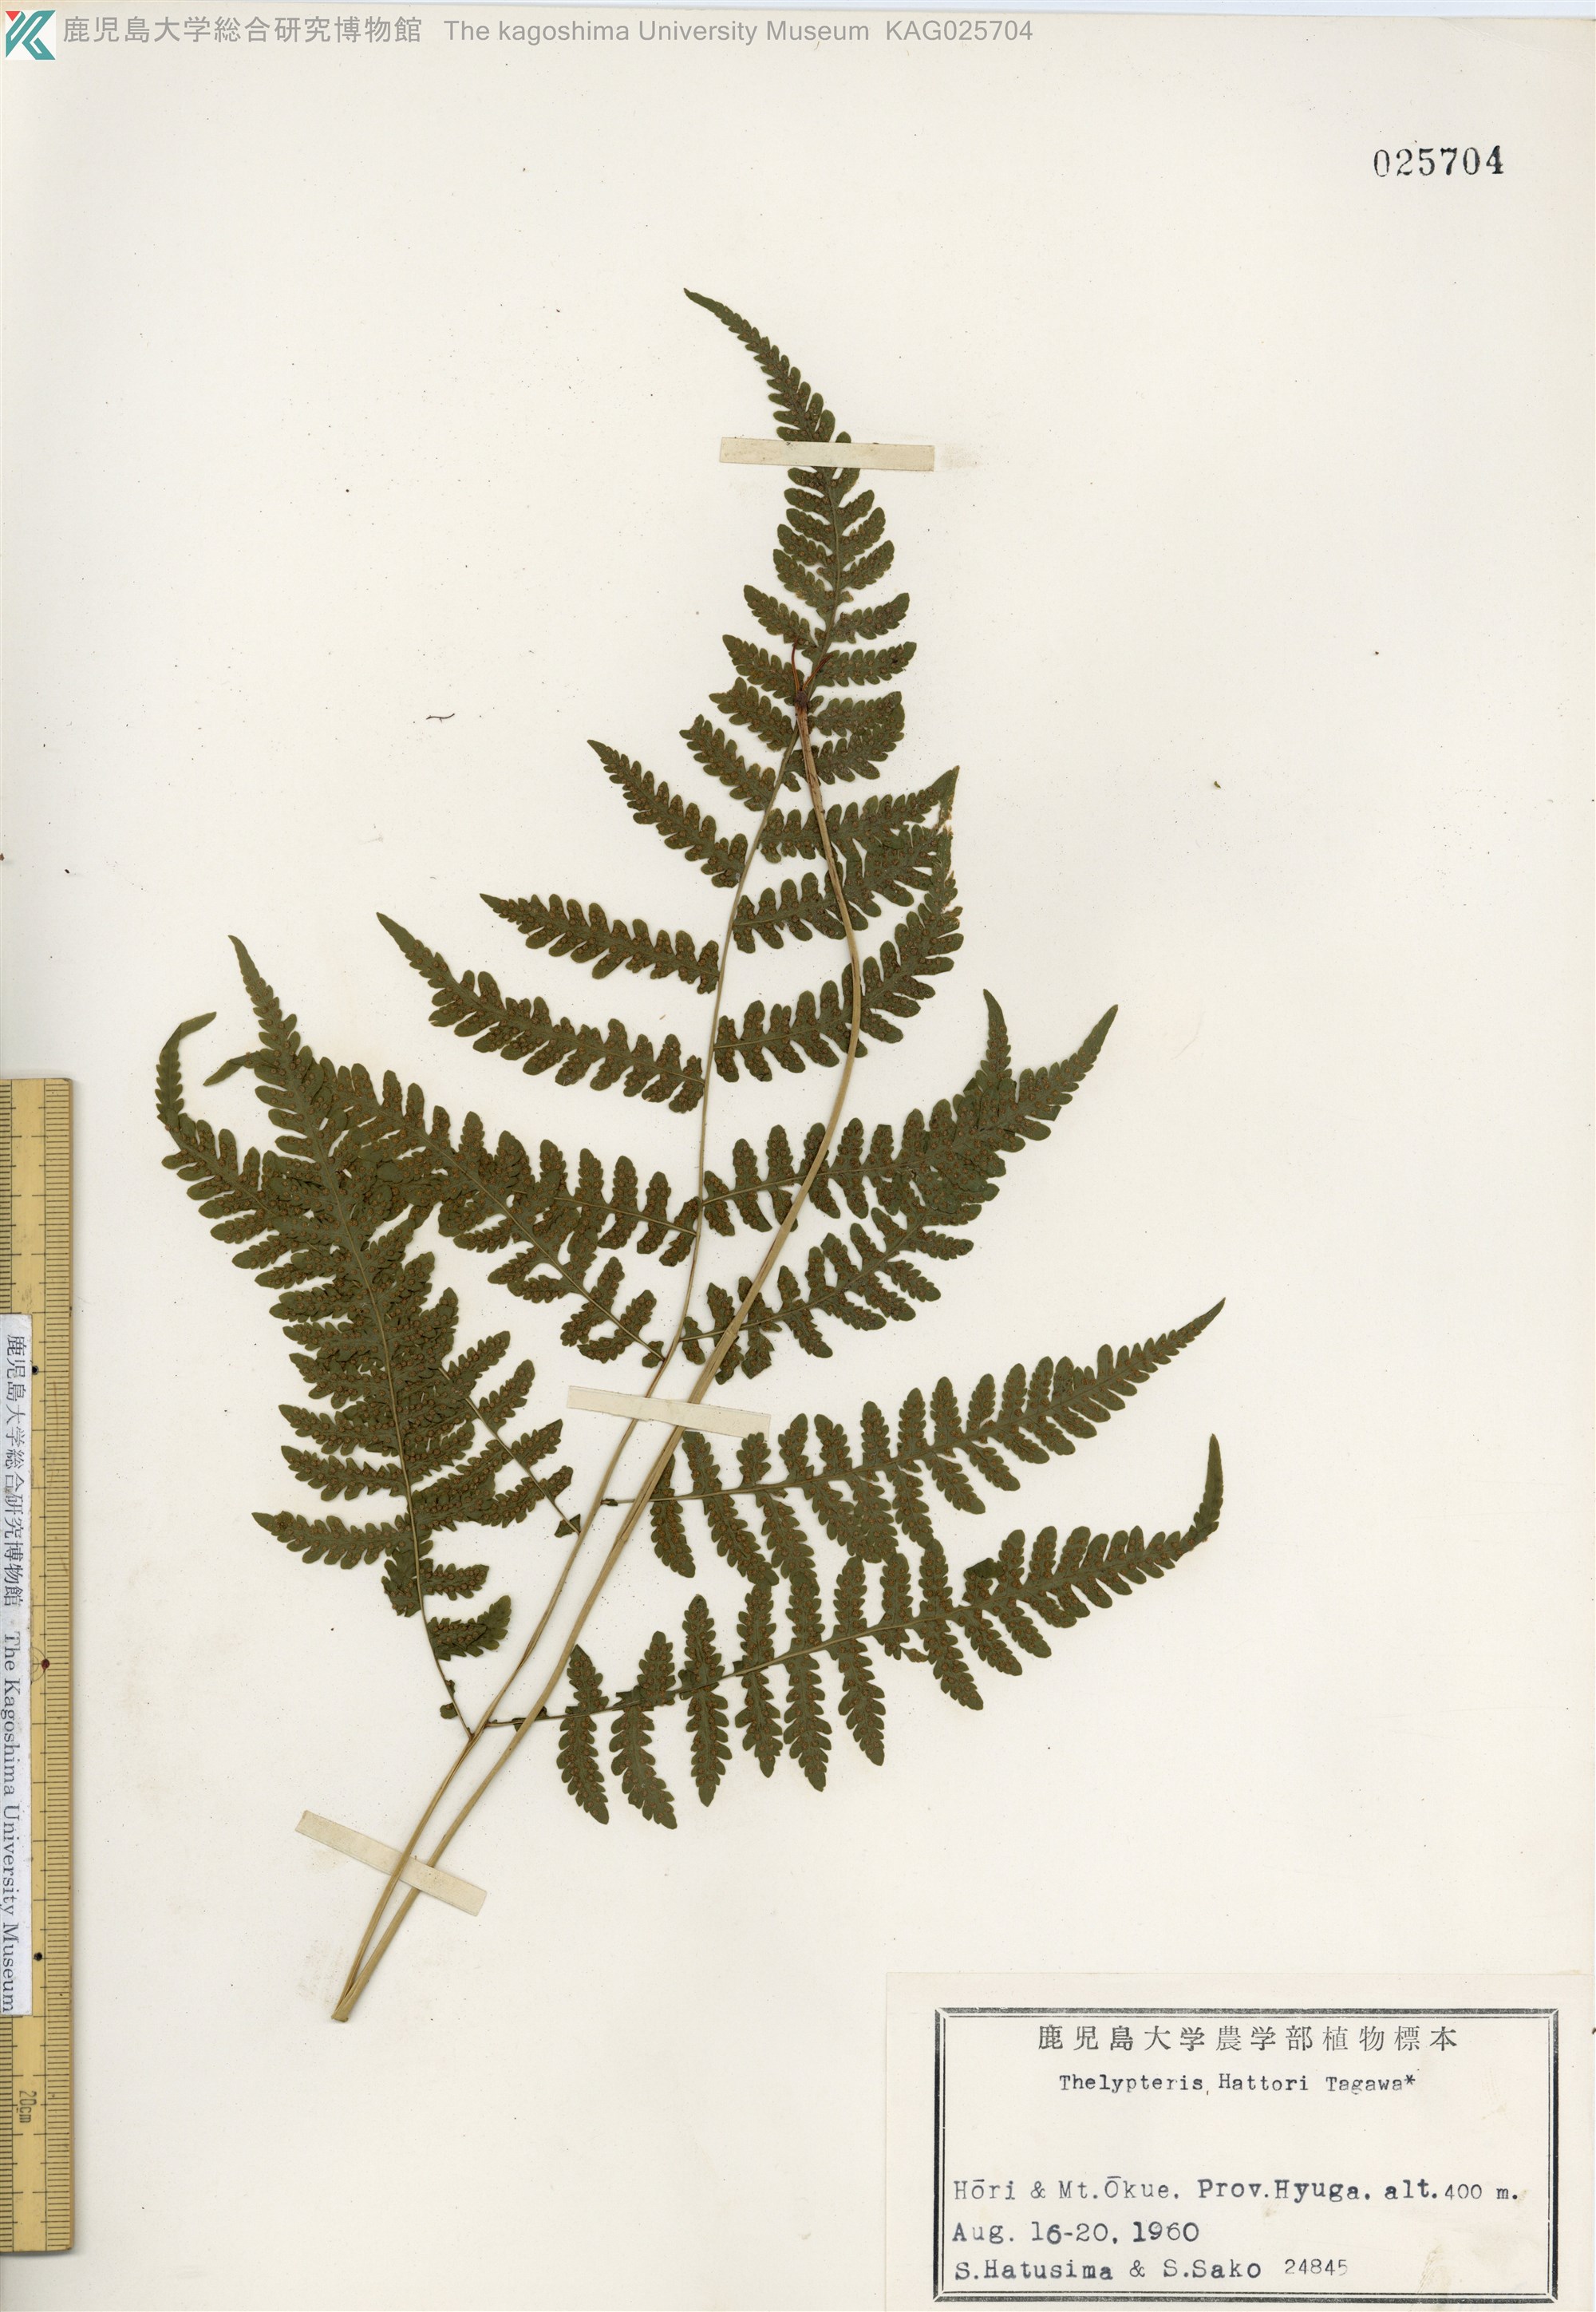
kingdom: Plantae
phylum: Tracheophyta
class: Polypodiopsida
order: Polypodiales
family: Thelypteridaceae
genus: Metathelypteris
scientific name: Metathelypteris hattori
